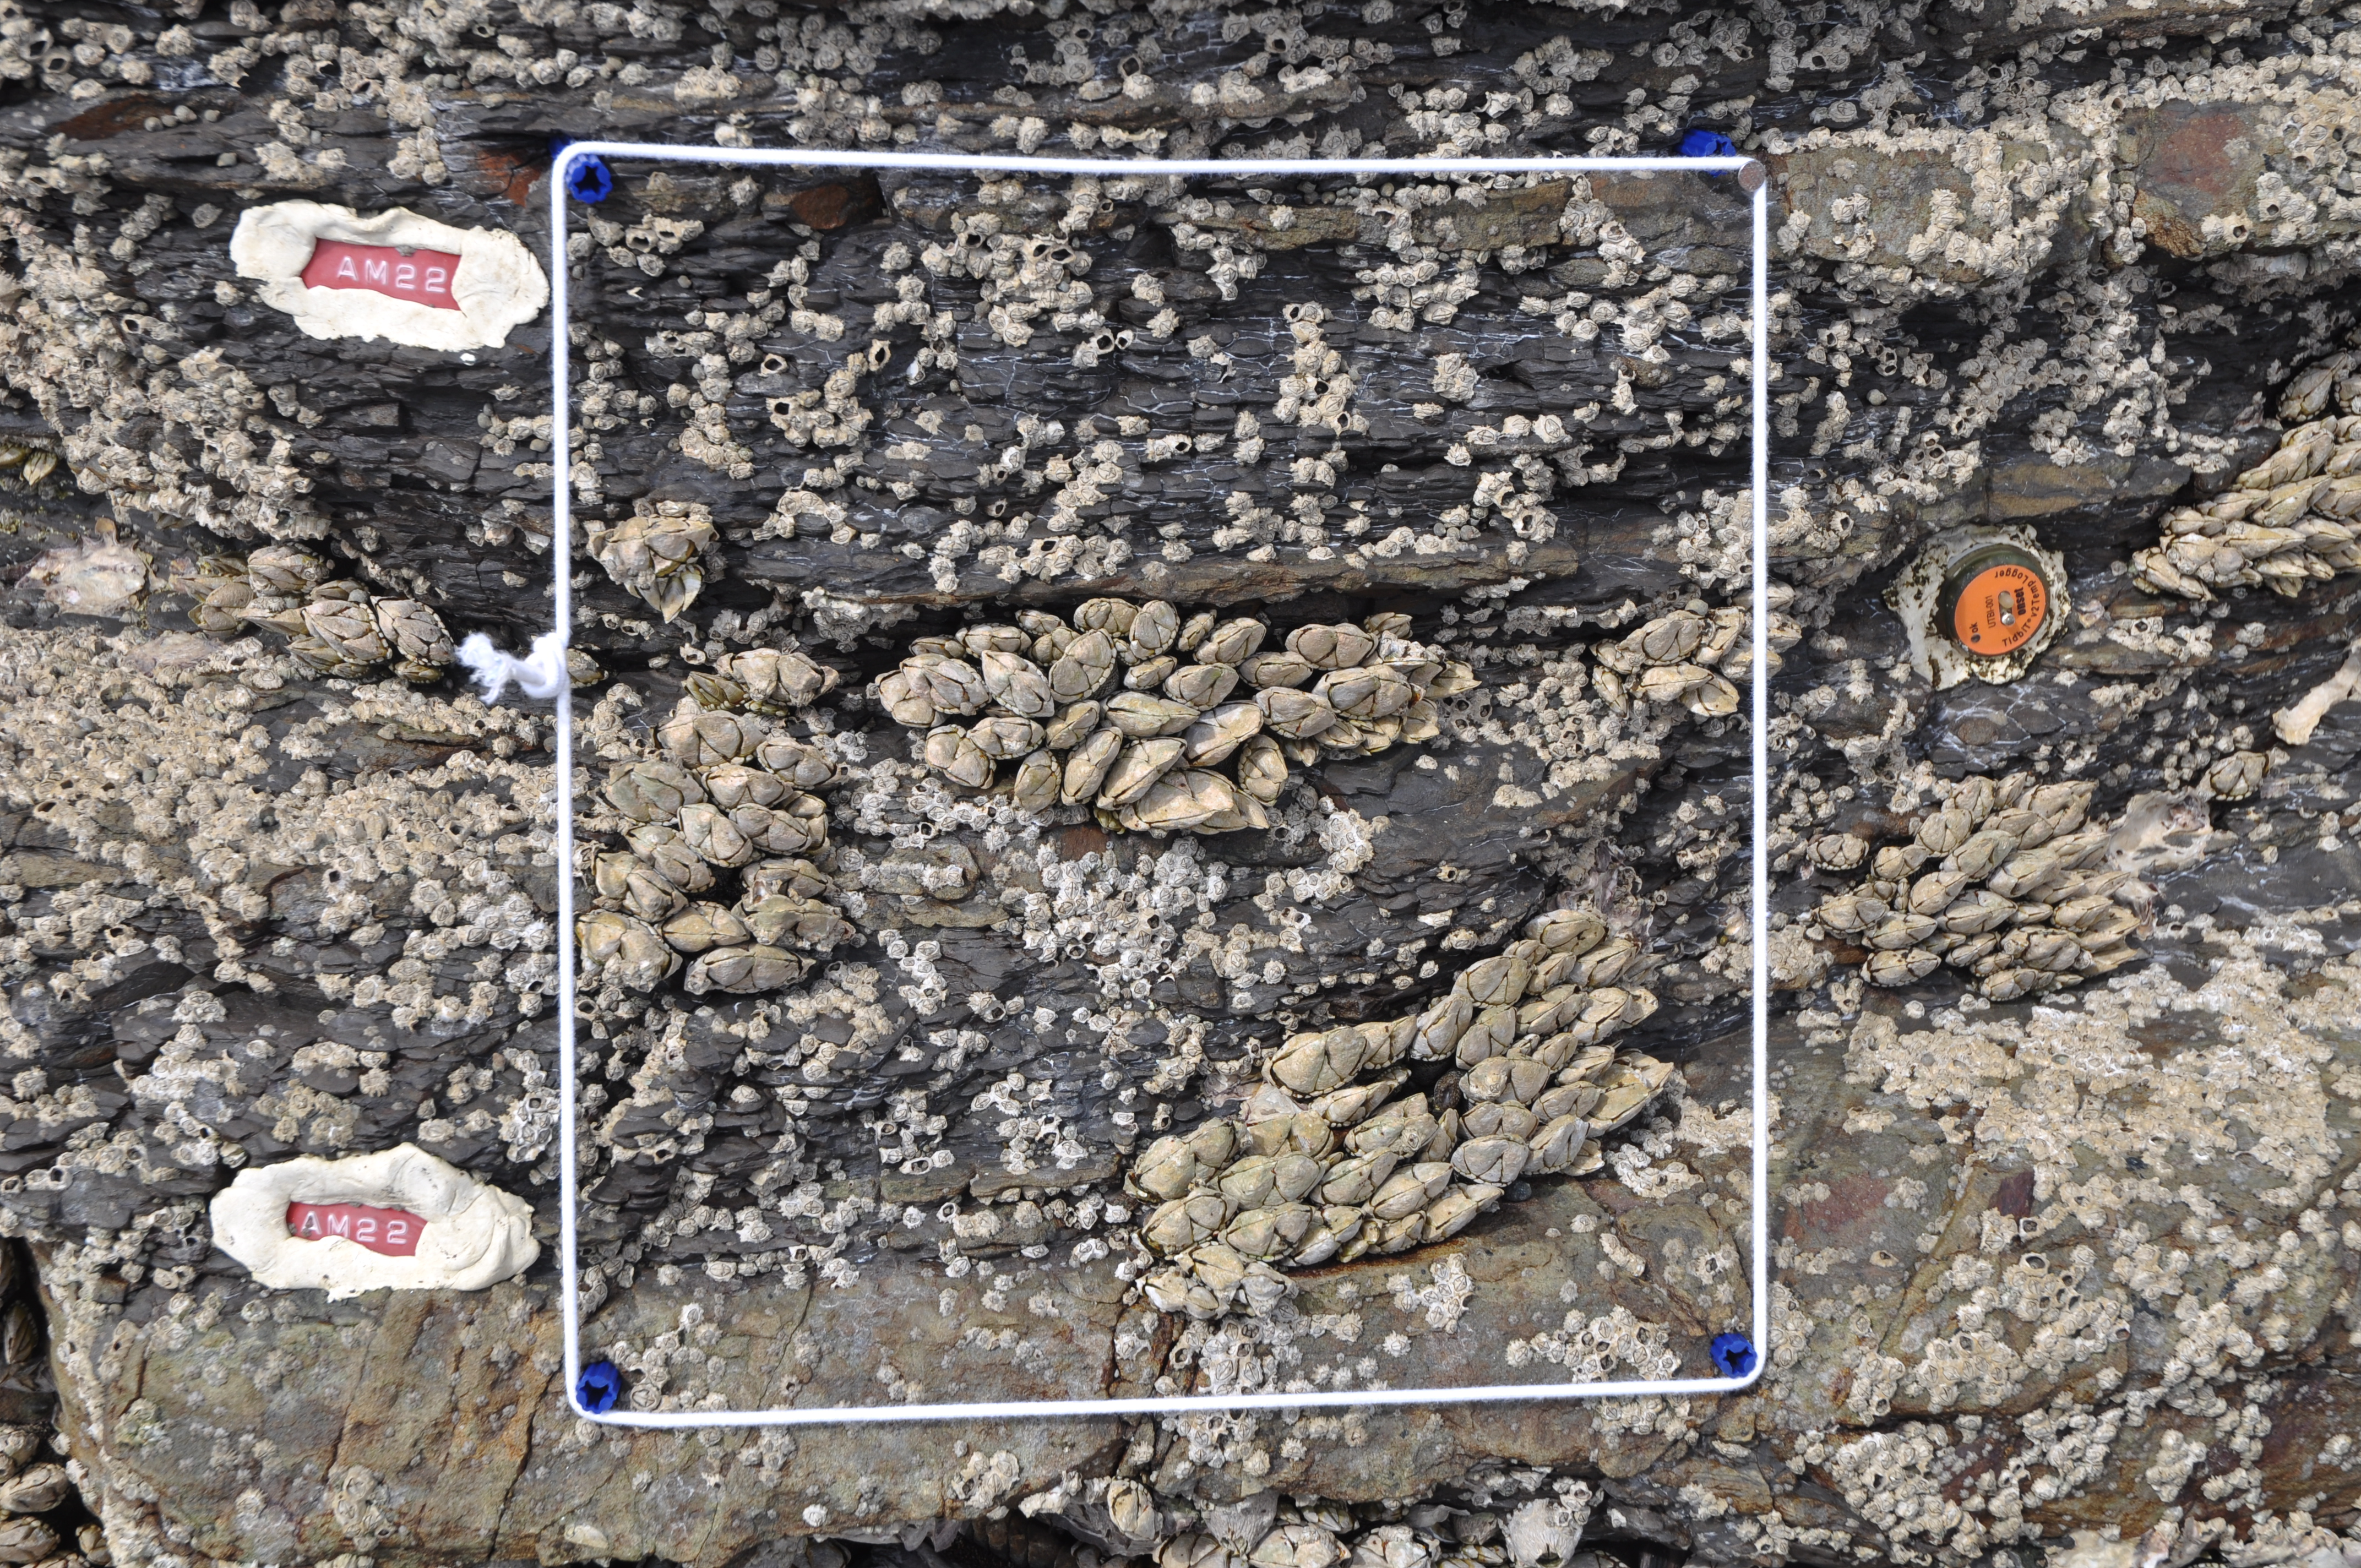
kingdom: Animalia
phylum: Arthropoda
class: Maxillopoda
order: Sessilia
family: Chthamalidae
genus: Chthamalus
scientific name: Chthamalus challengeri
